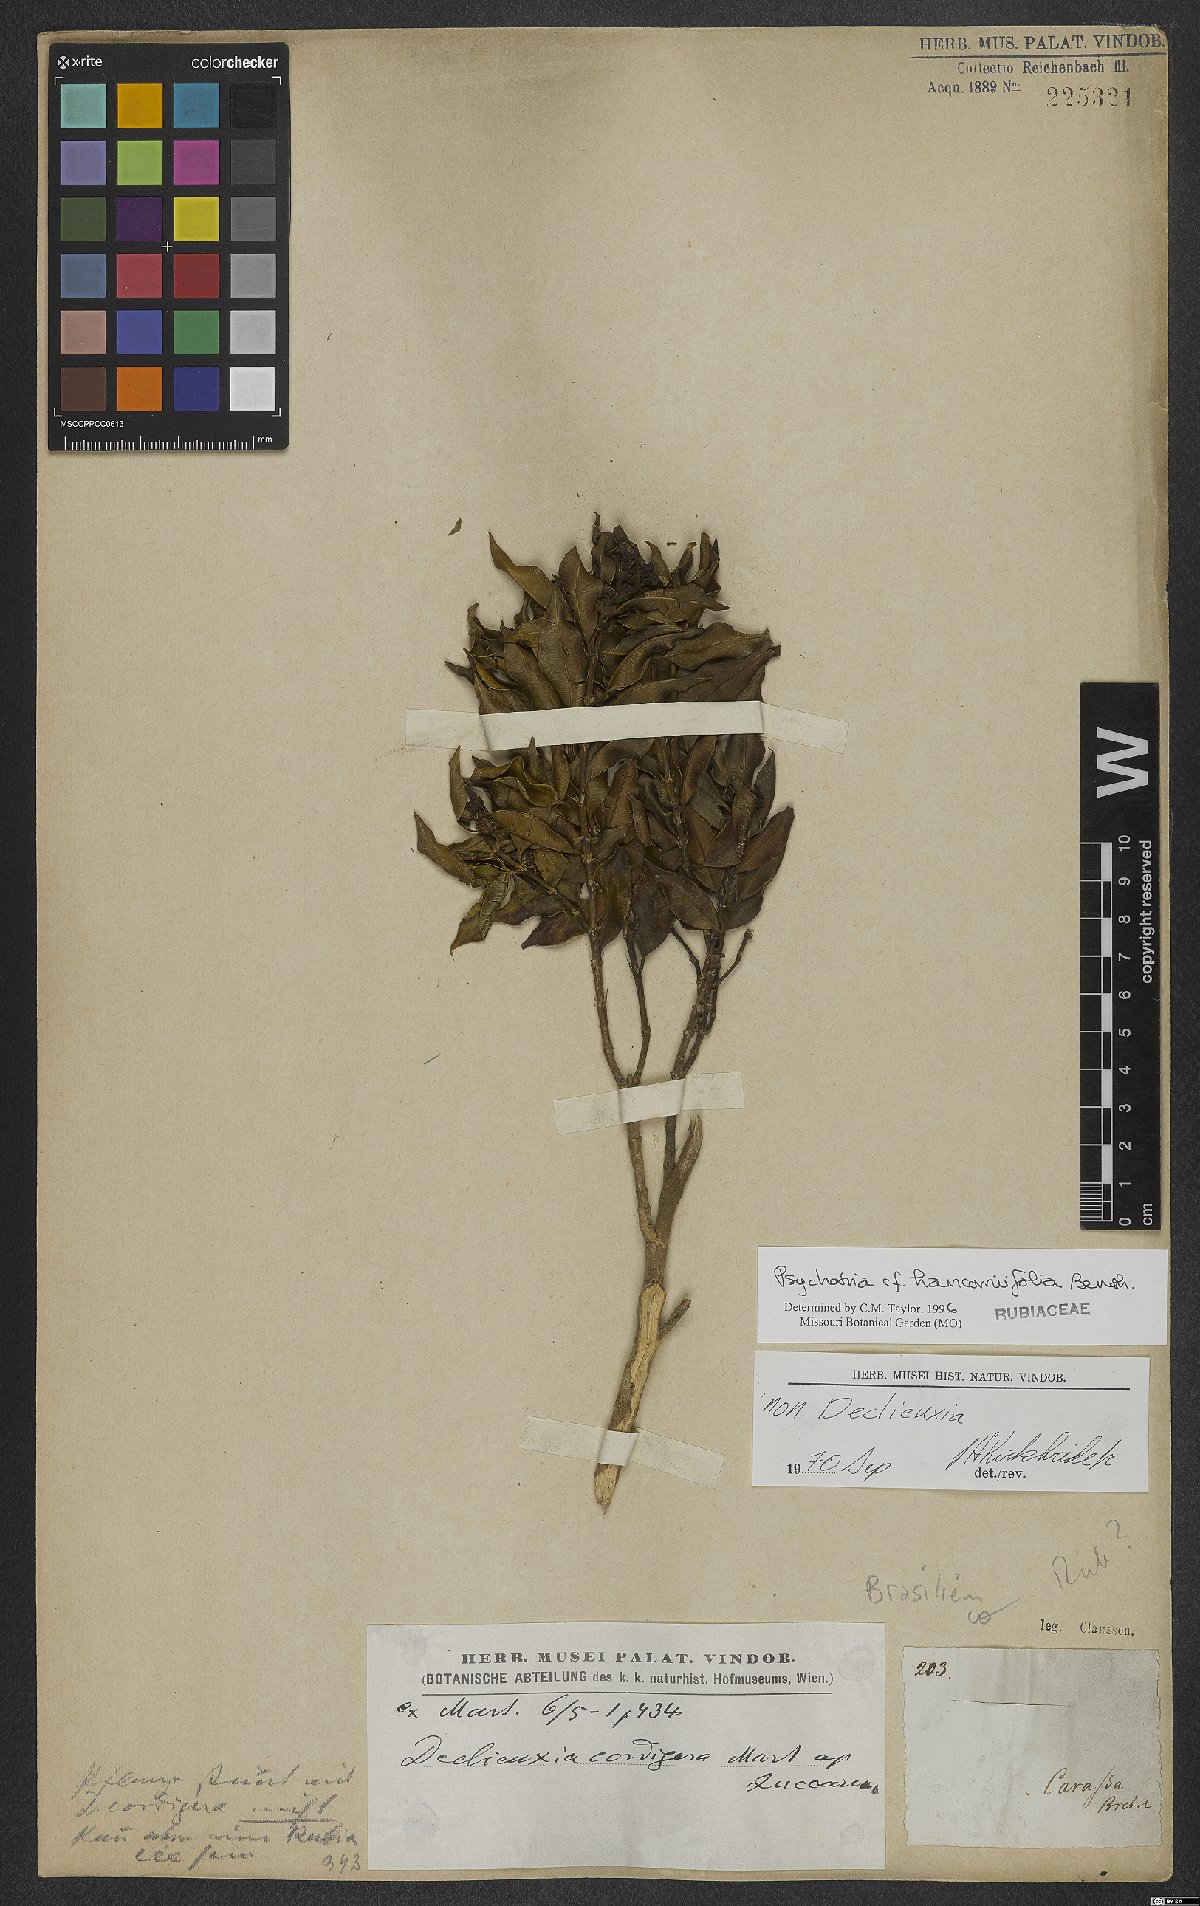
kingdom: Plantae
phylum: Tracheophyta
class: Magnoliopsida
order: Gentianales
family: Rubiaceae
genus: Palicourea
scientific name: Palicourea sessilis
